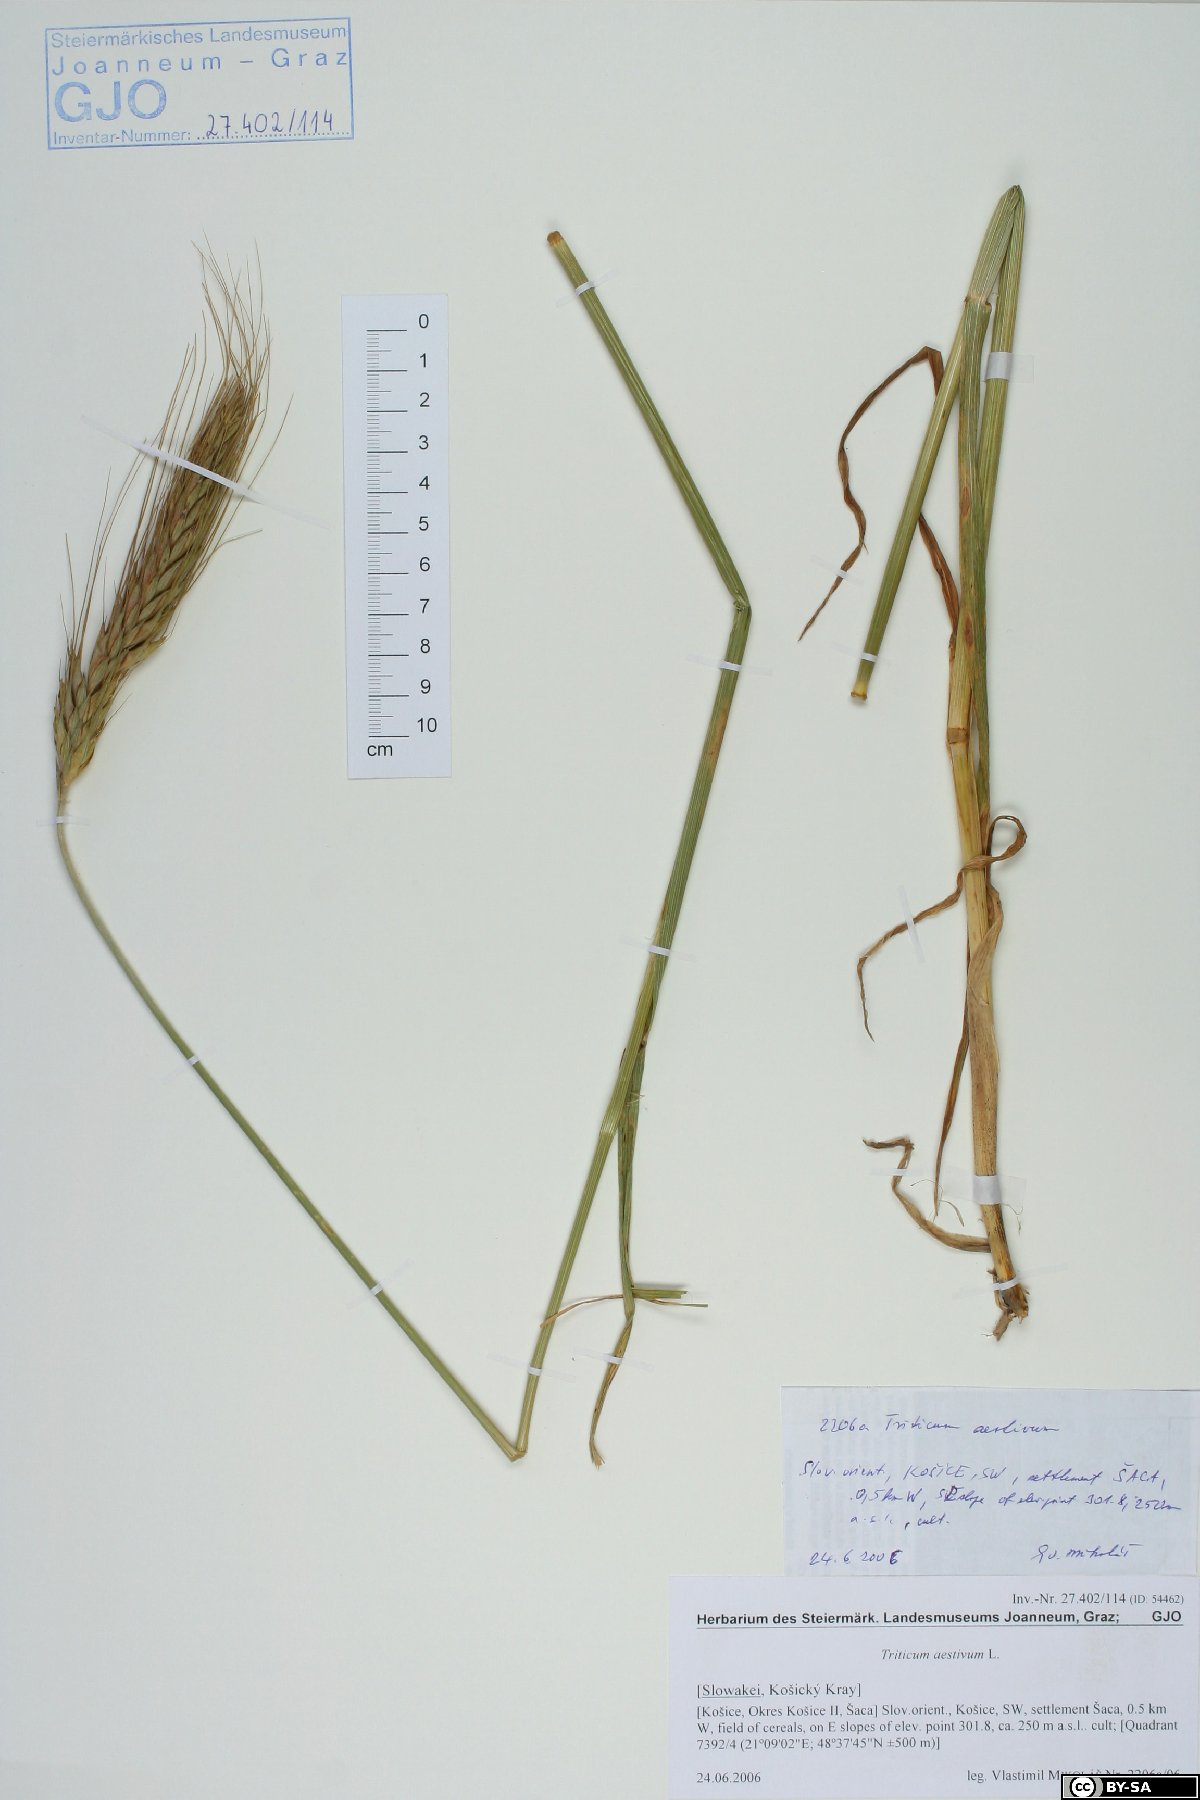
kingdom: Plantae
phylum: Tracheophyta
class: Liliopsida
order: Poales
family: Poaceae
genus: Triticum
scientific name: Triticum aestivum
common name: Common wheat
